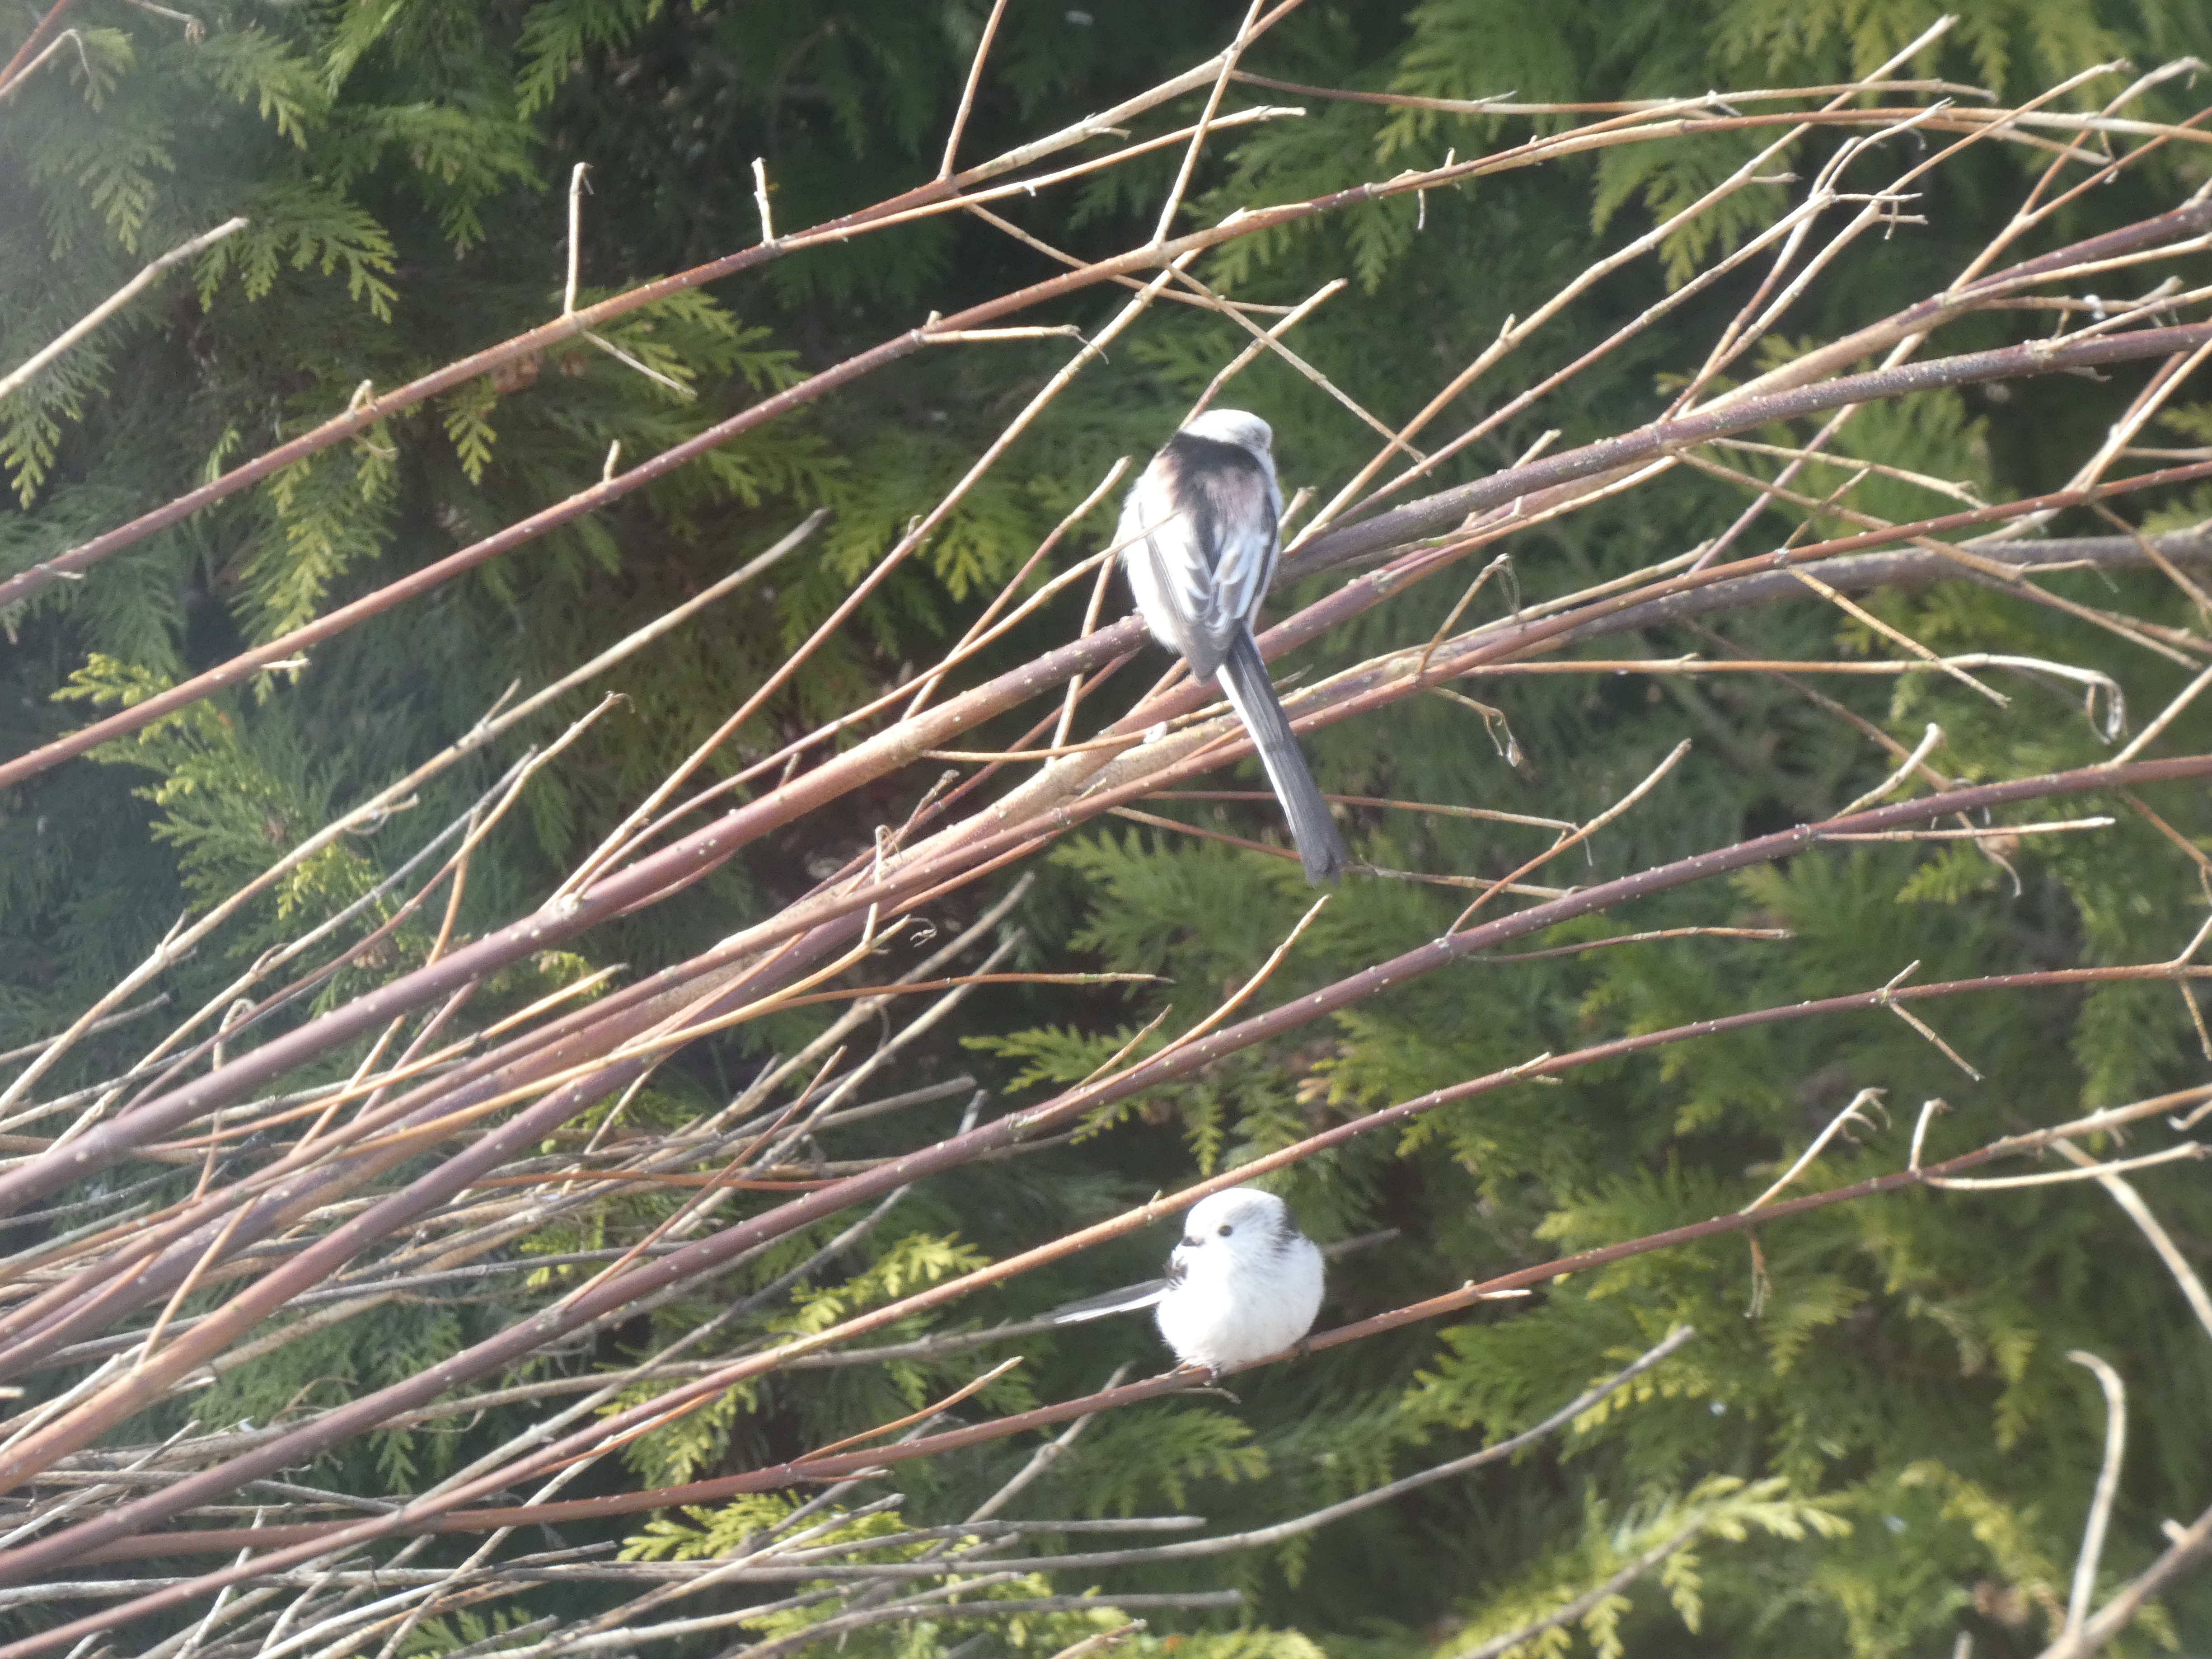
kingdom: Animalia
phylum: Chordata
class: Aves
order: Passeriformes
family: Aegithalidae
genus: Aegithalos
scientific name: Aegithalos caudatus
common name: Halemejse
